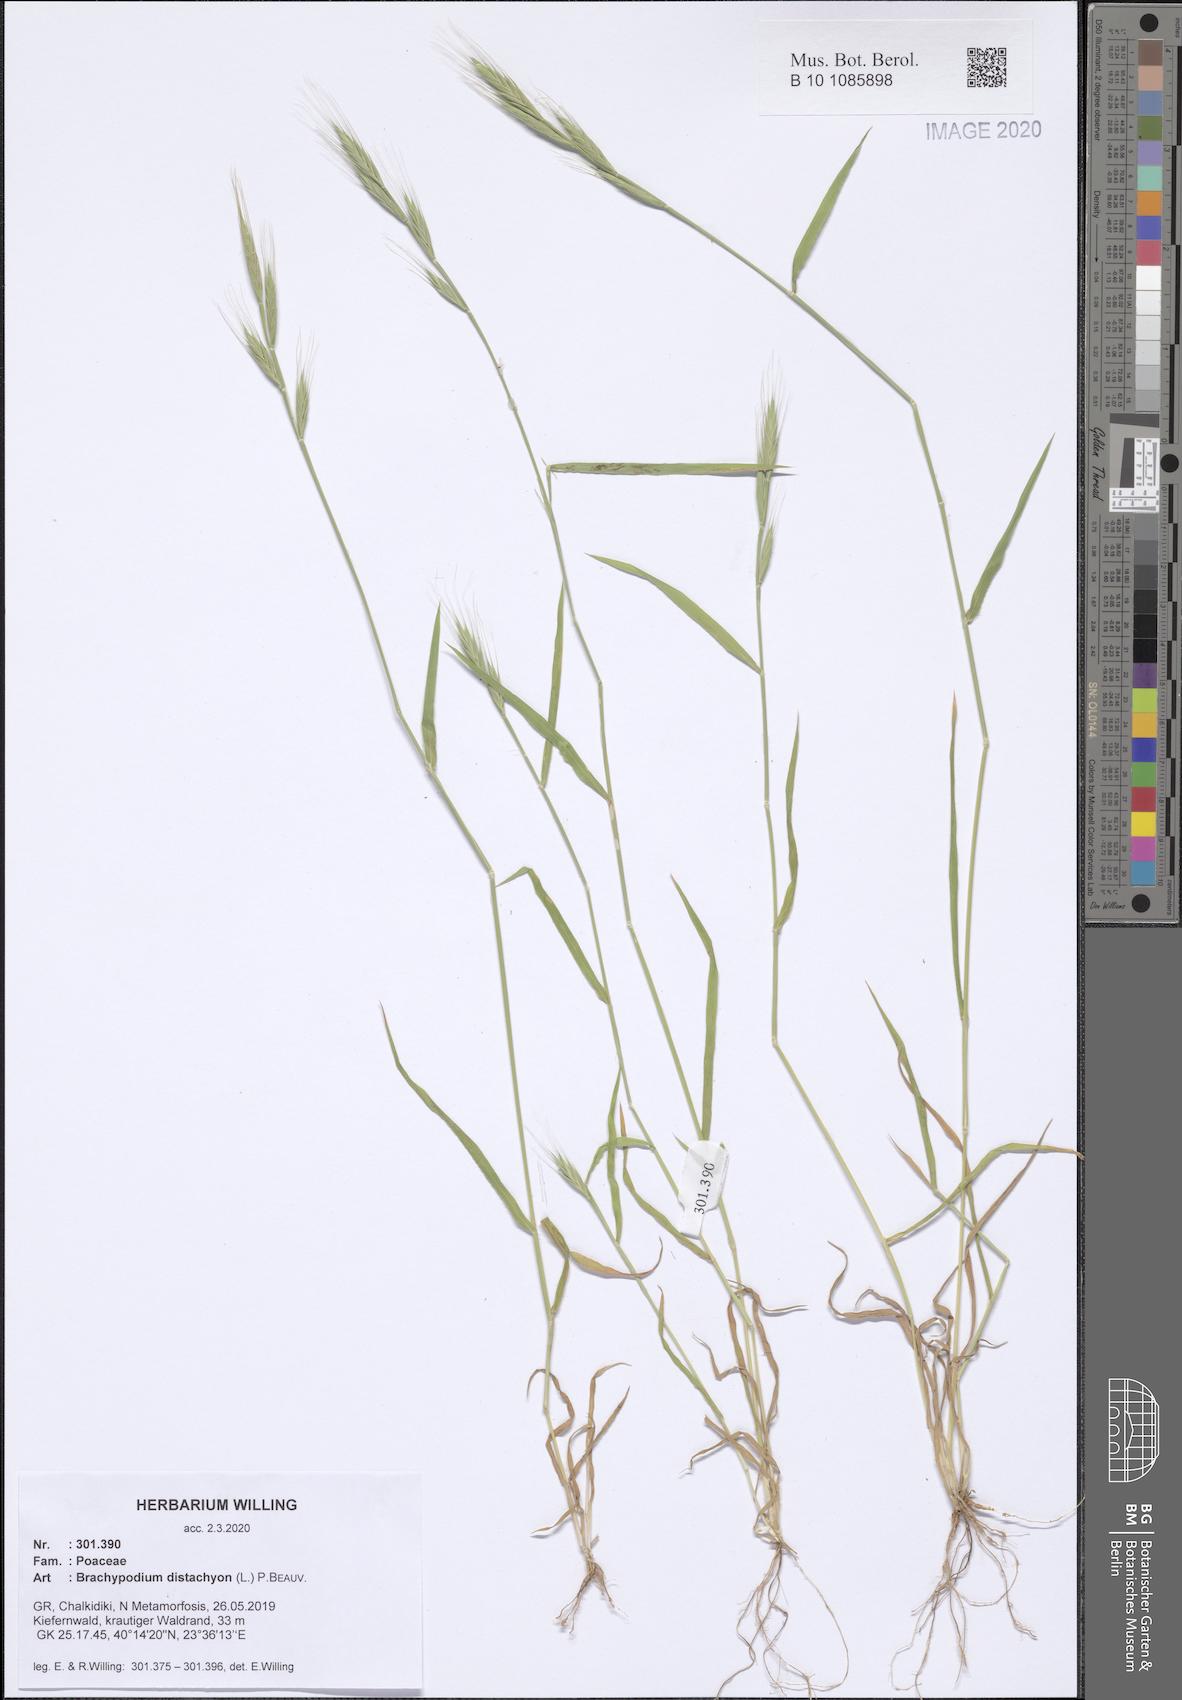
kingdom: Plantae
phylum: Tracheophyta
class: Liliopsida
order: Poales
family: Poaceae
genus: Brachypodium
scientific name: Brachypodium distachyon
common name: Stiff brome
